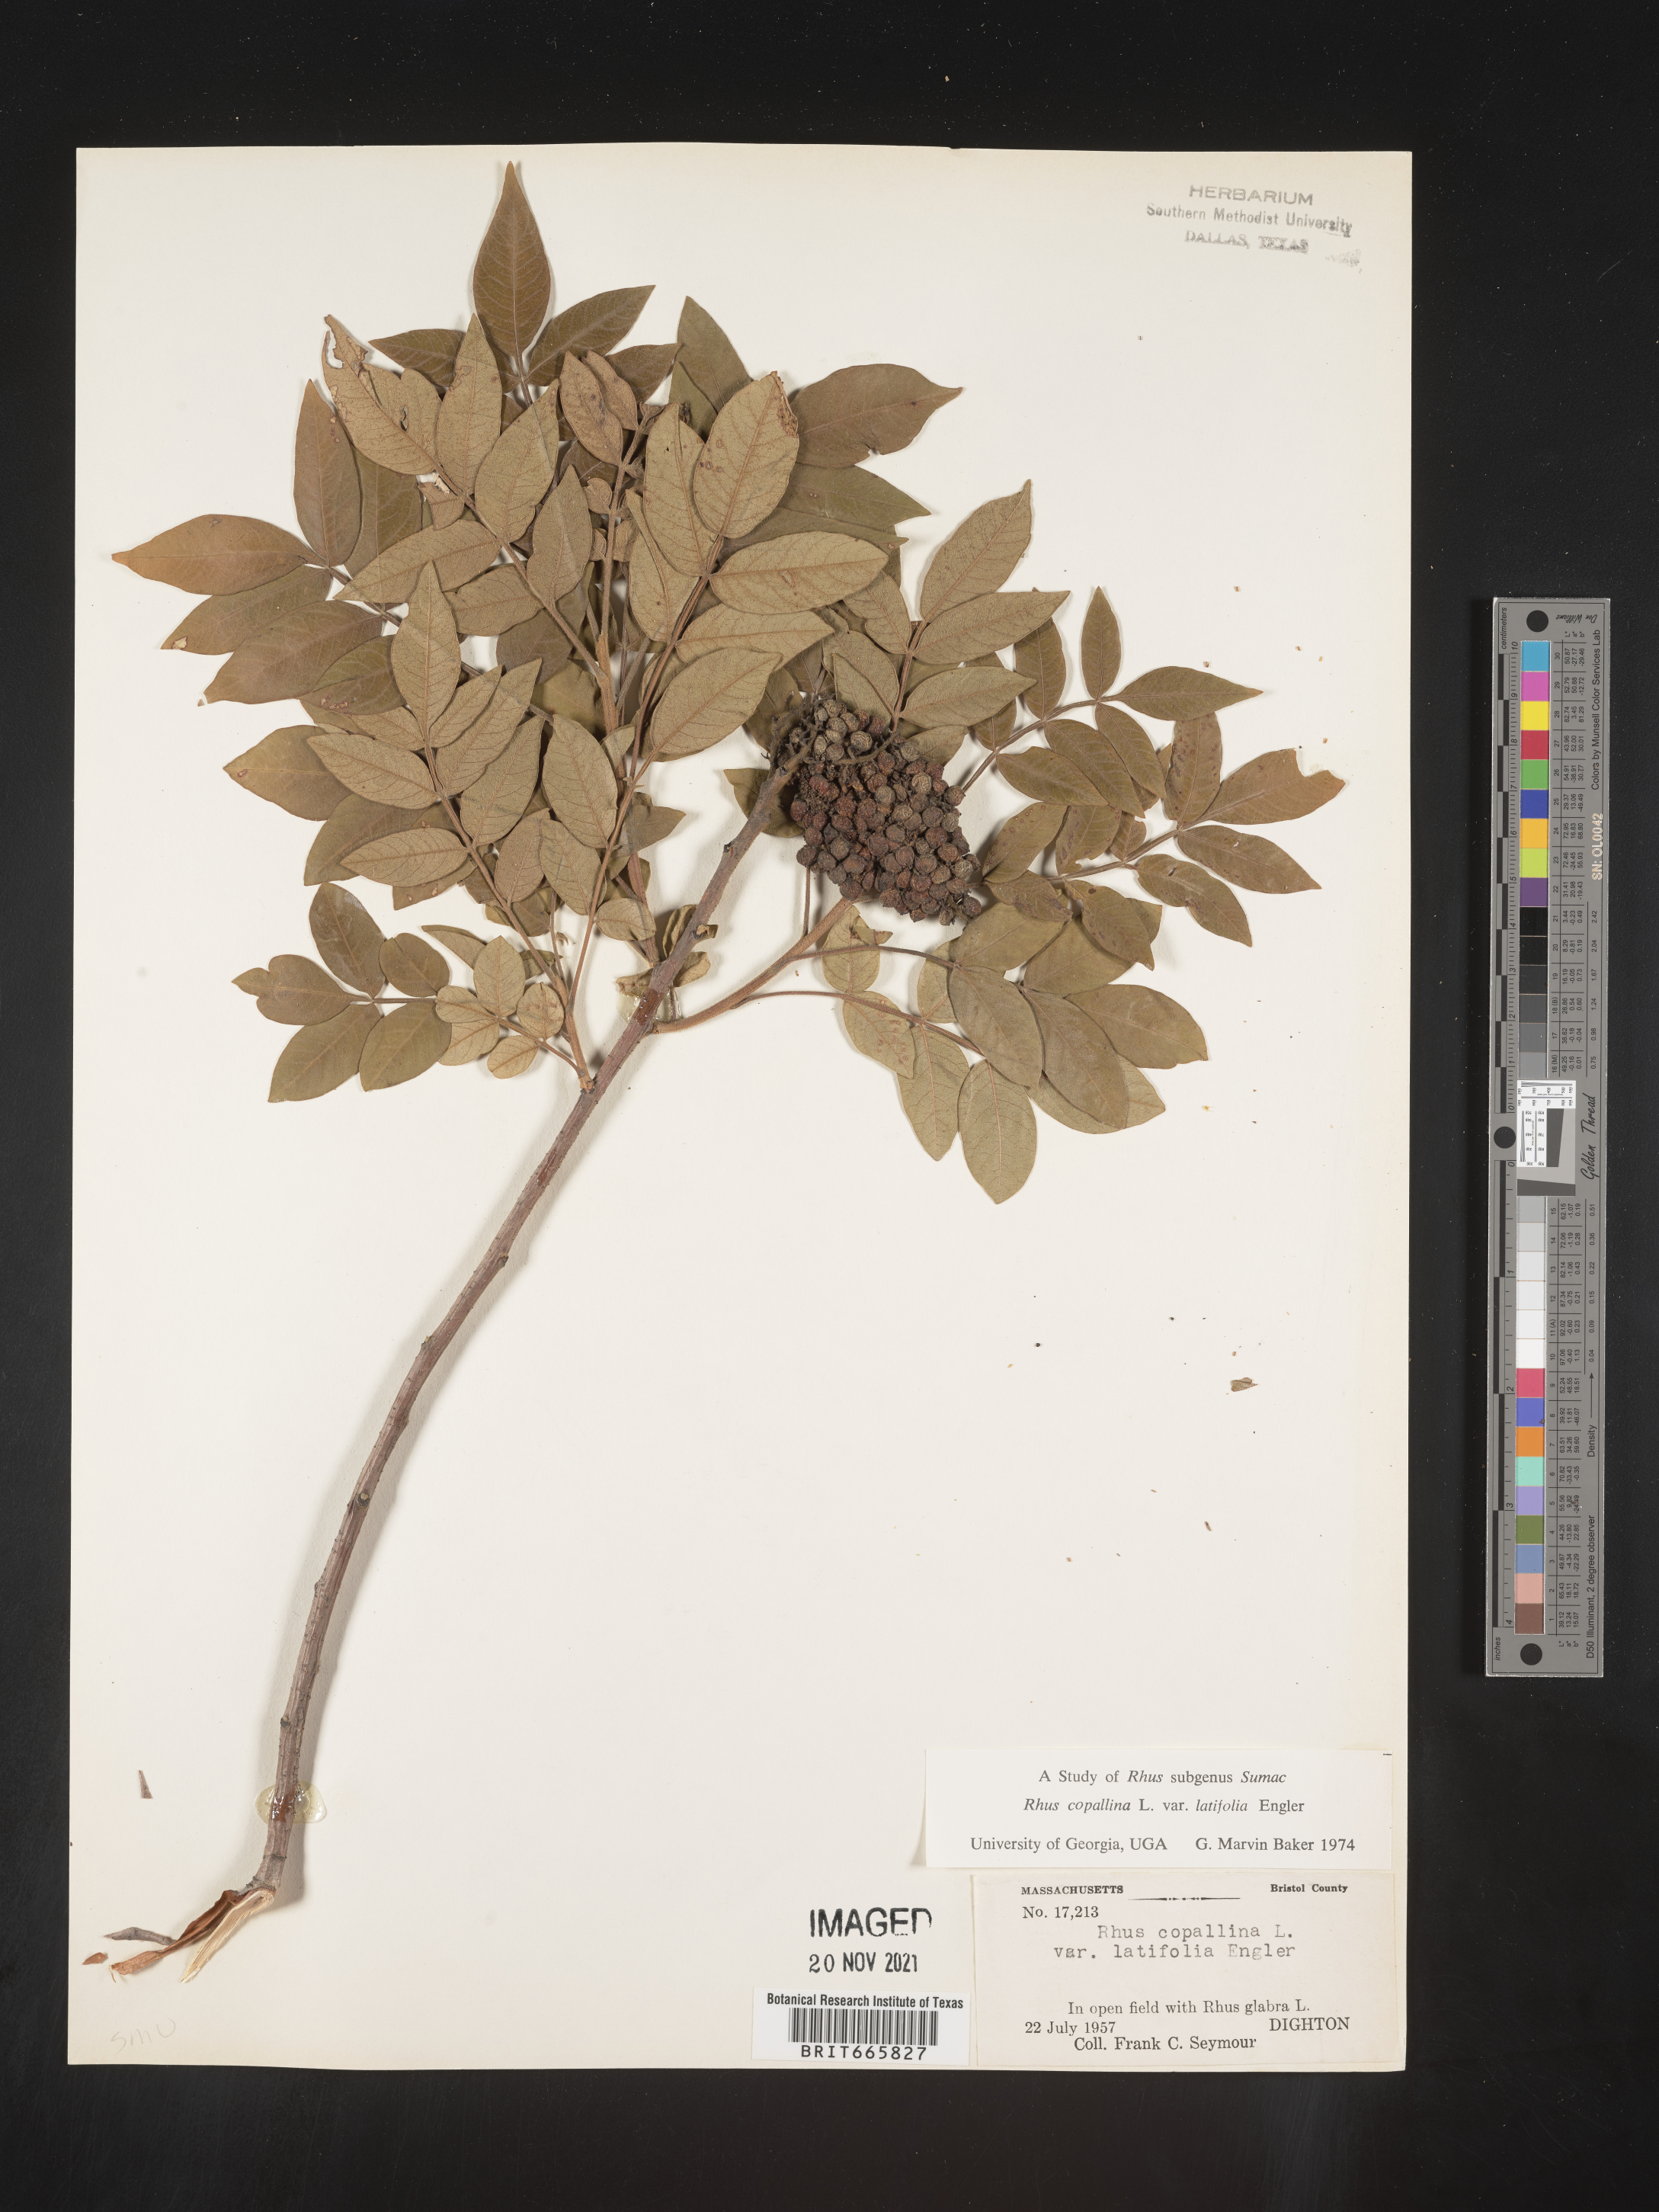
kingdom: Plantae
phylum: Tracheophyta
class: Magnoliopsida
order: Sapindales
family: Anacardiaceae
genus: Rhus
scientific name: Rhus copallina
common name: Shining sumac
